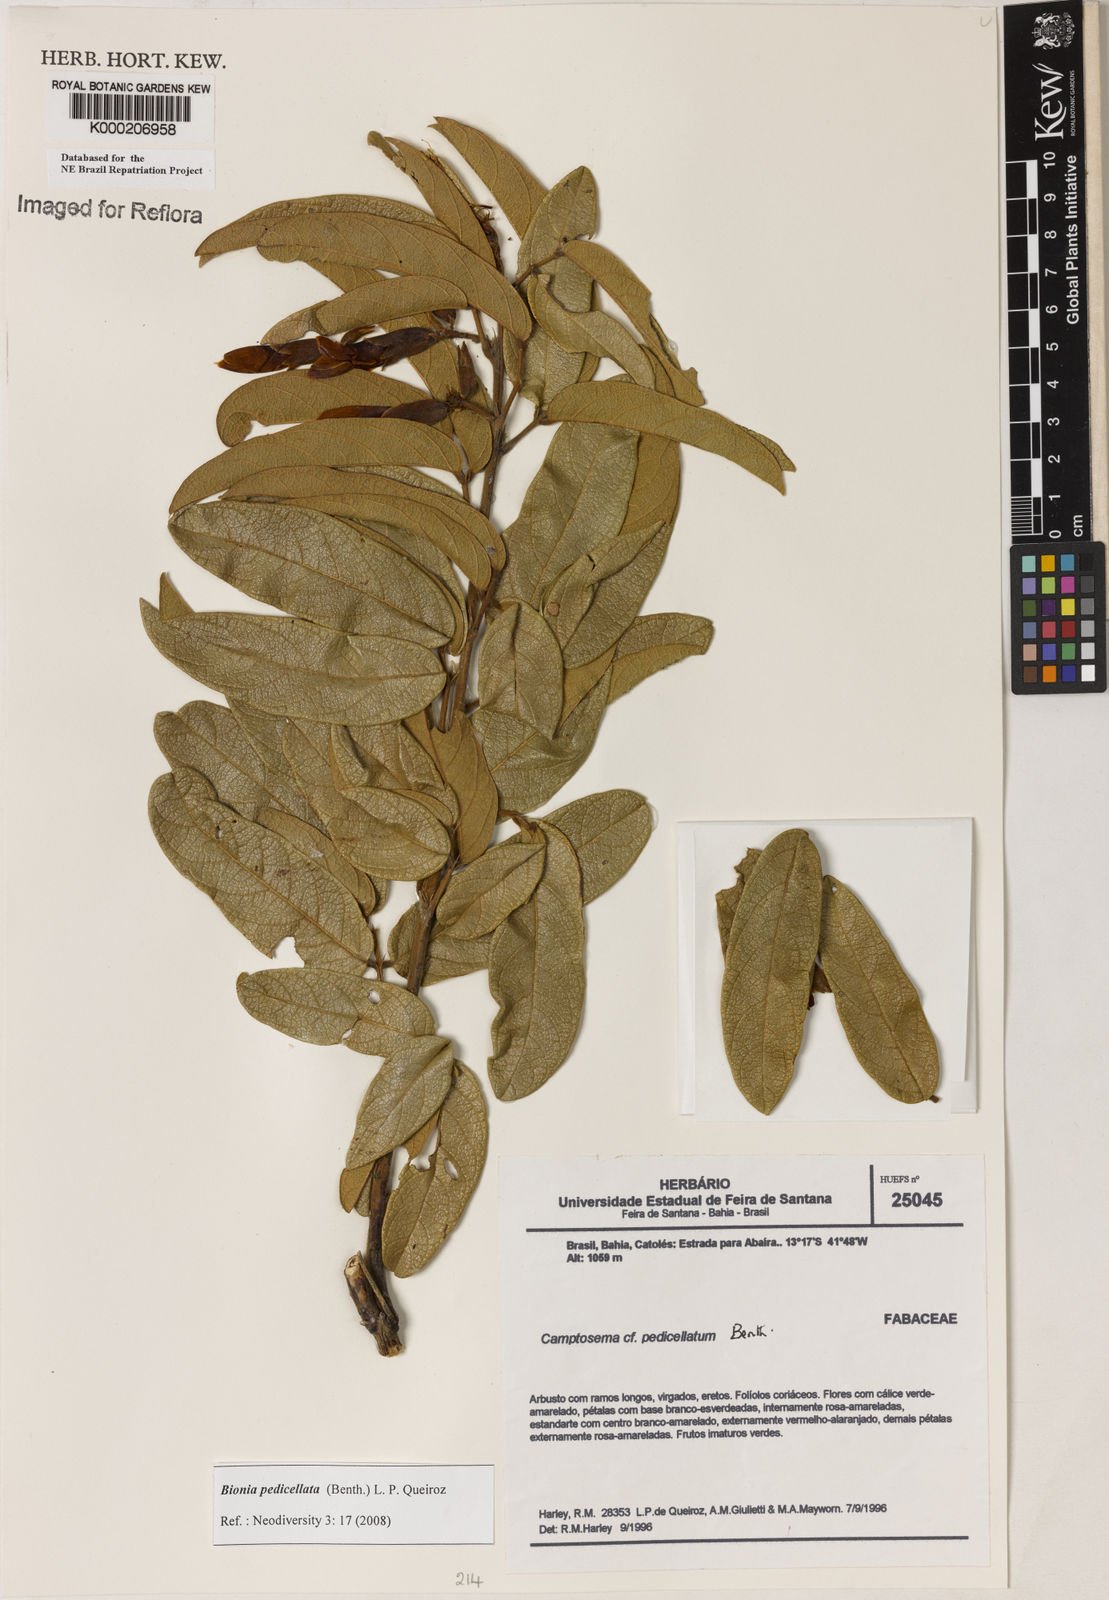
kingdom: Plantae
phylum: Tracheophyta
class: Magnoliopsida
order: Fabales
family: Fabaceae
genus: Camptosema
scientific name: Camptosema pedicellatum
